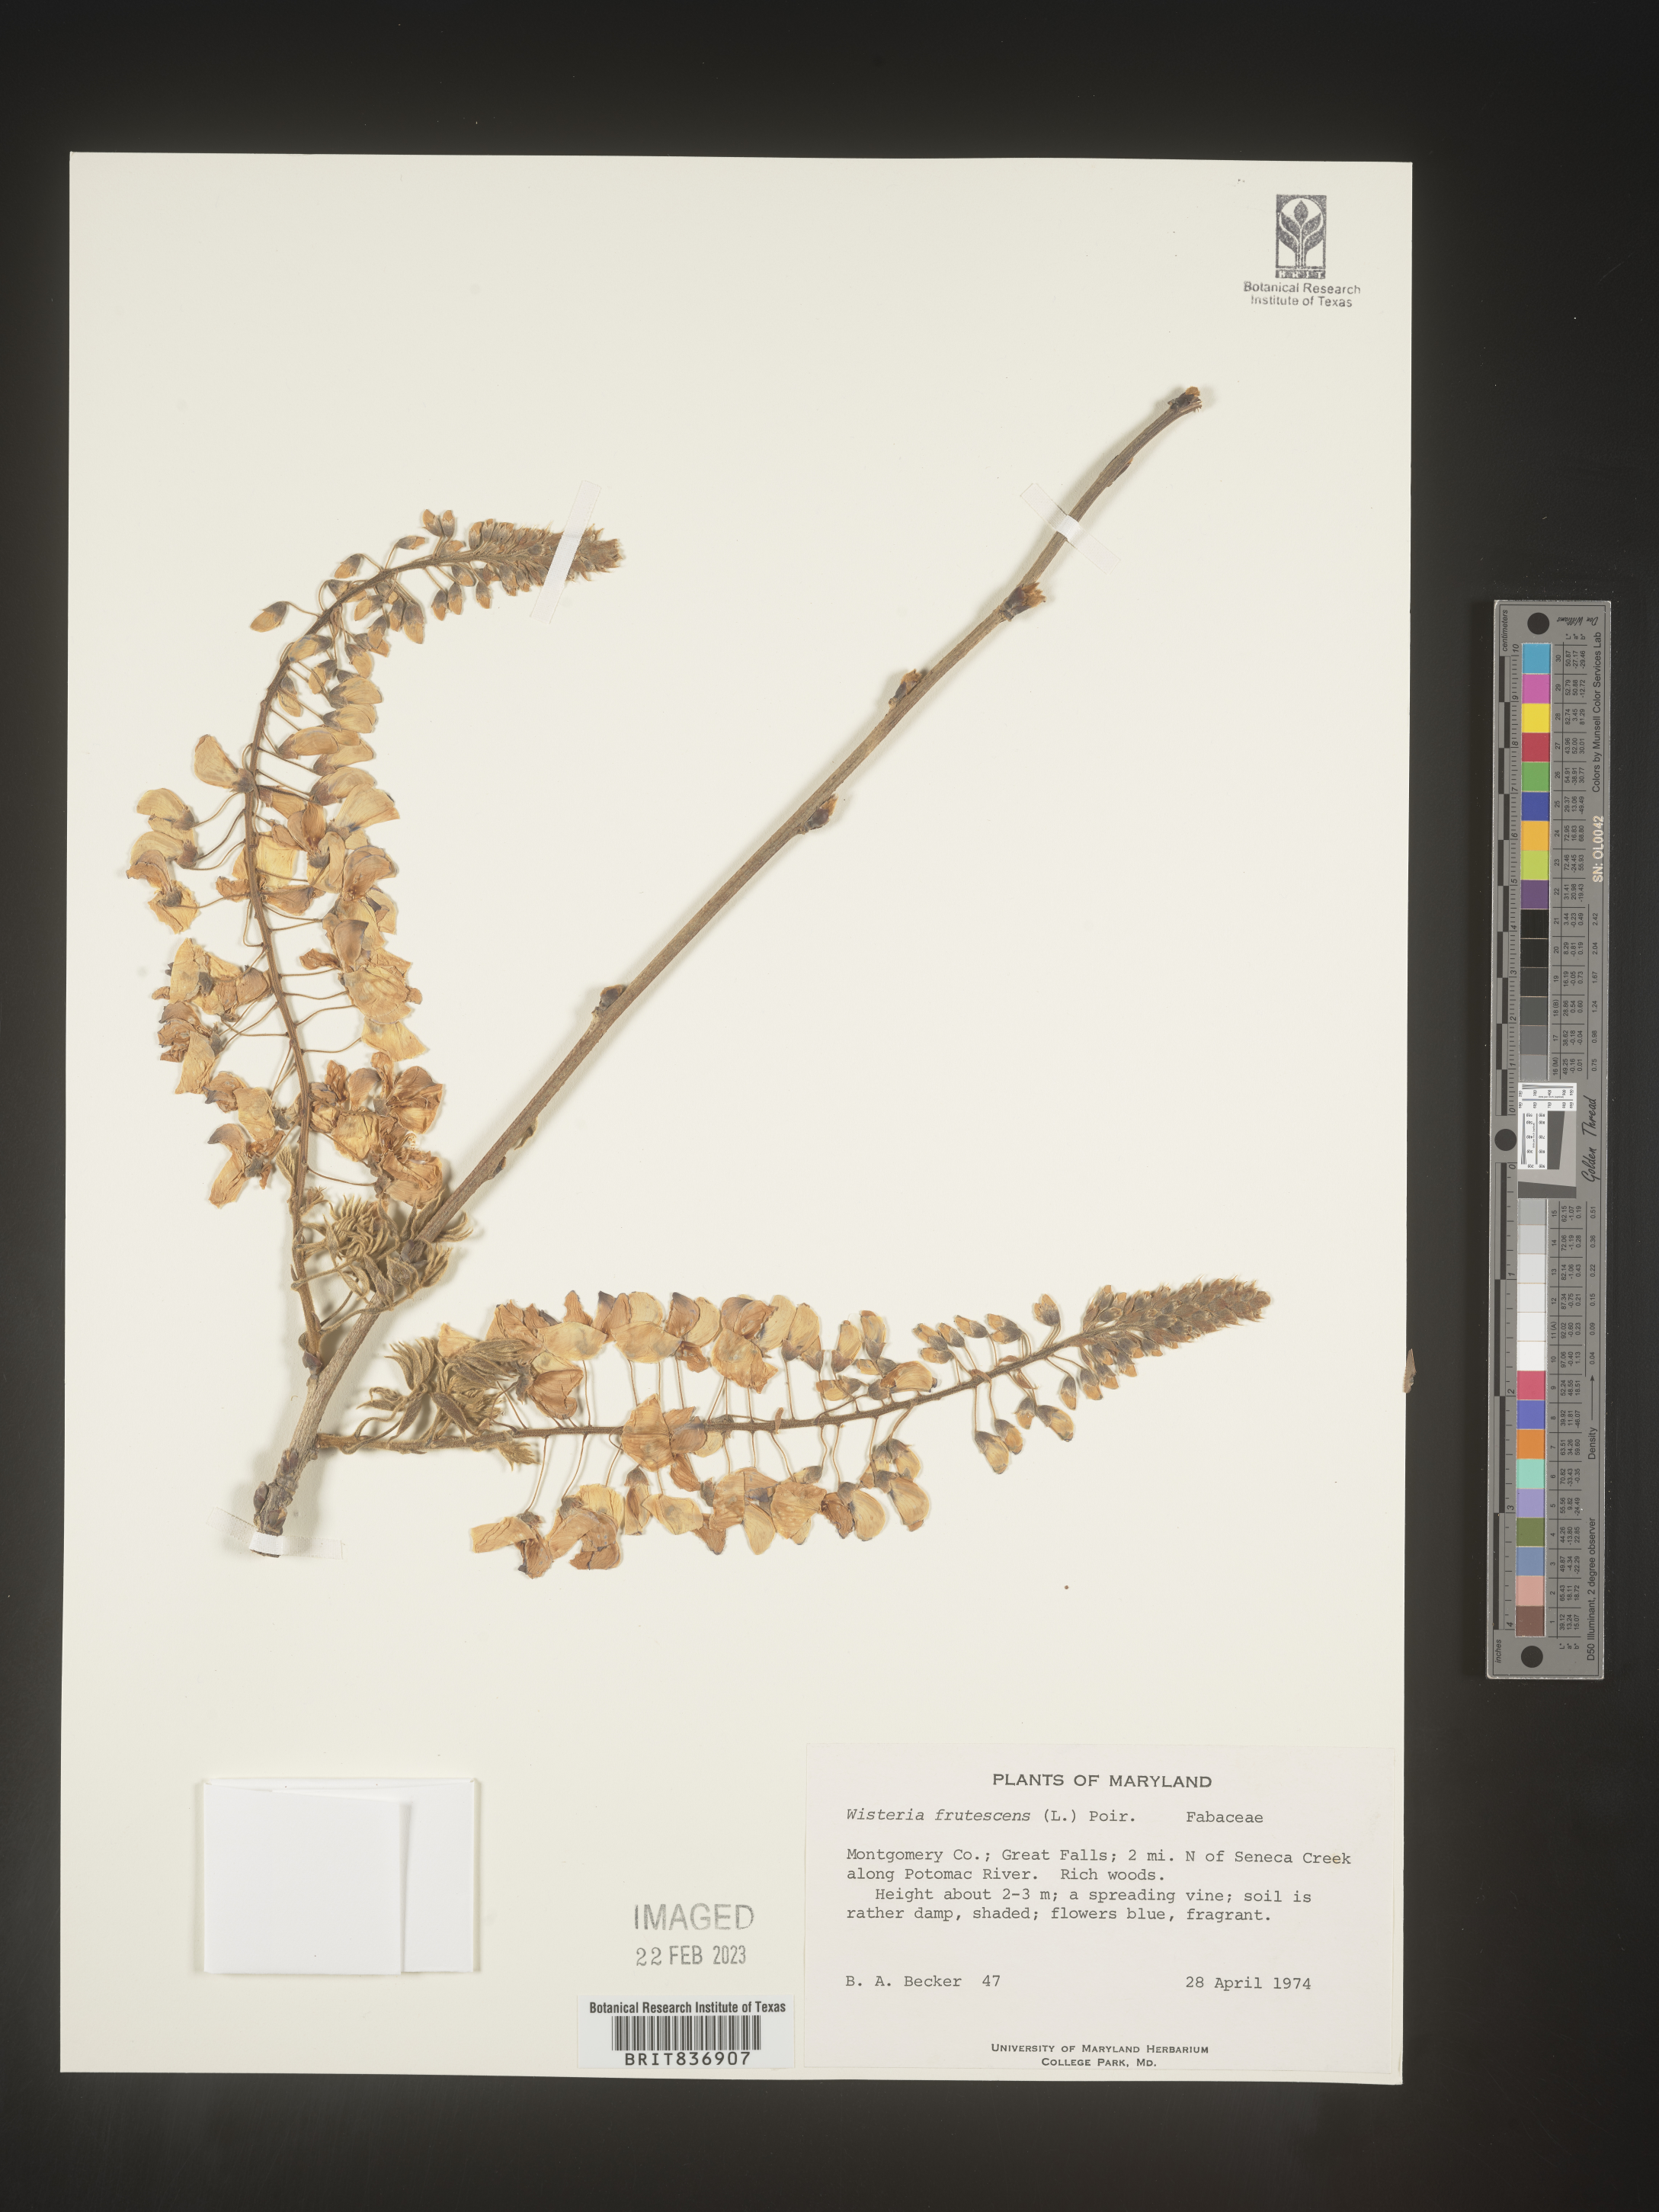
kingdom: Plantae
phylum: Tracheophyta
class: Magnoliopsida
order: Fabales
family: Fabaceae
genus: Wisteria
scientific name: Wisteria
